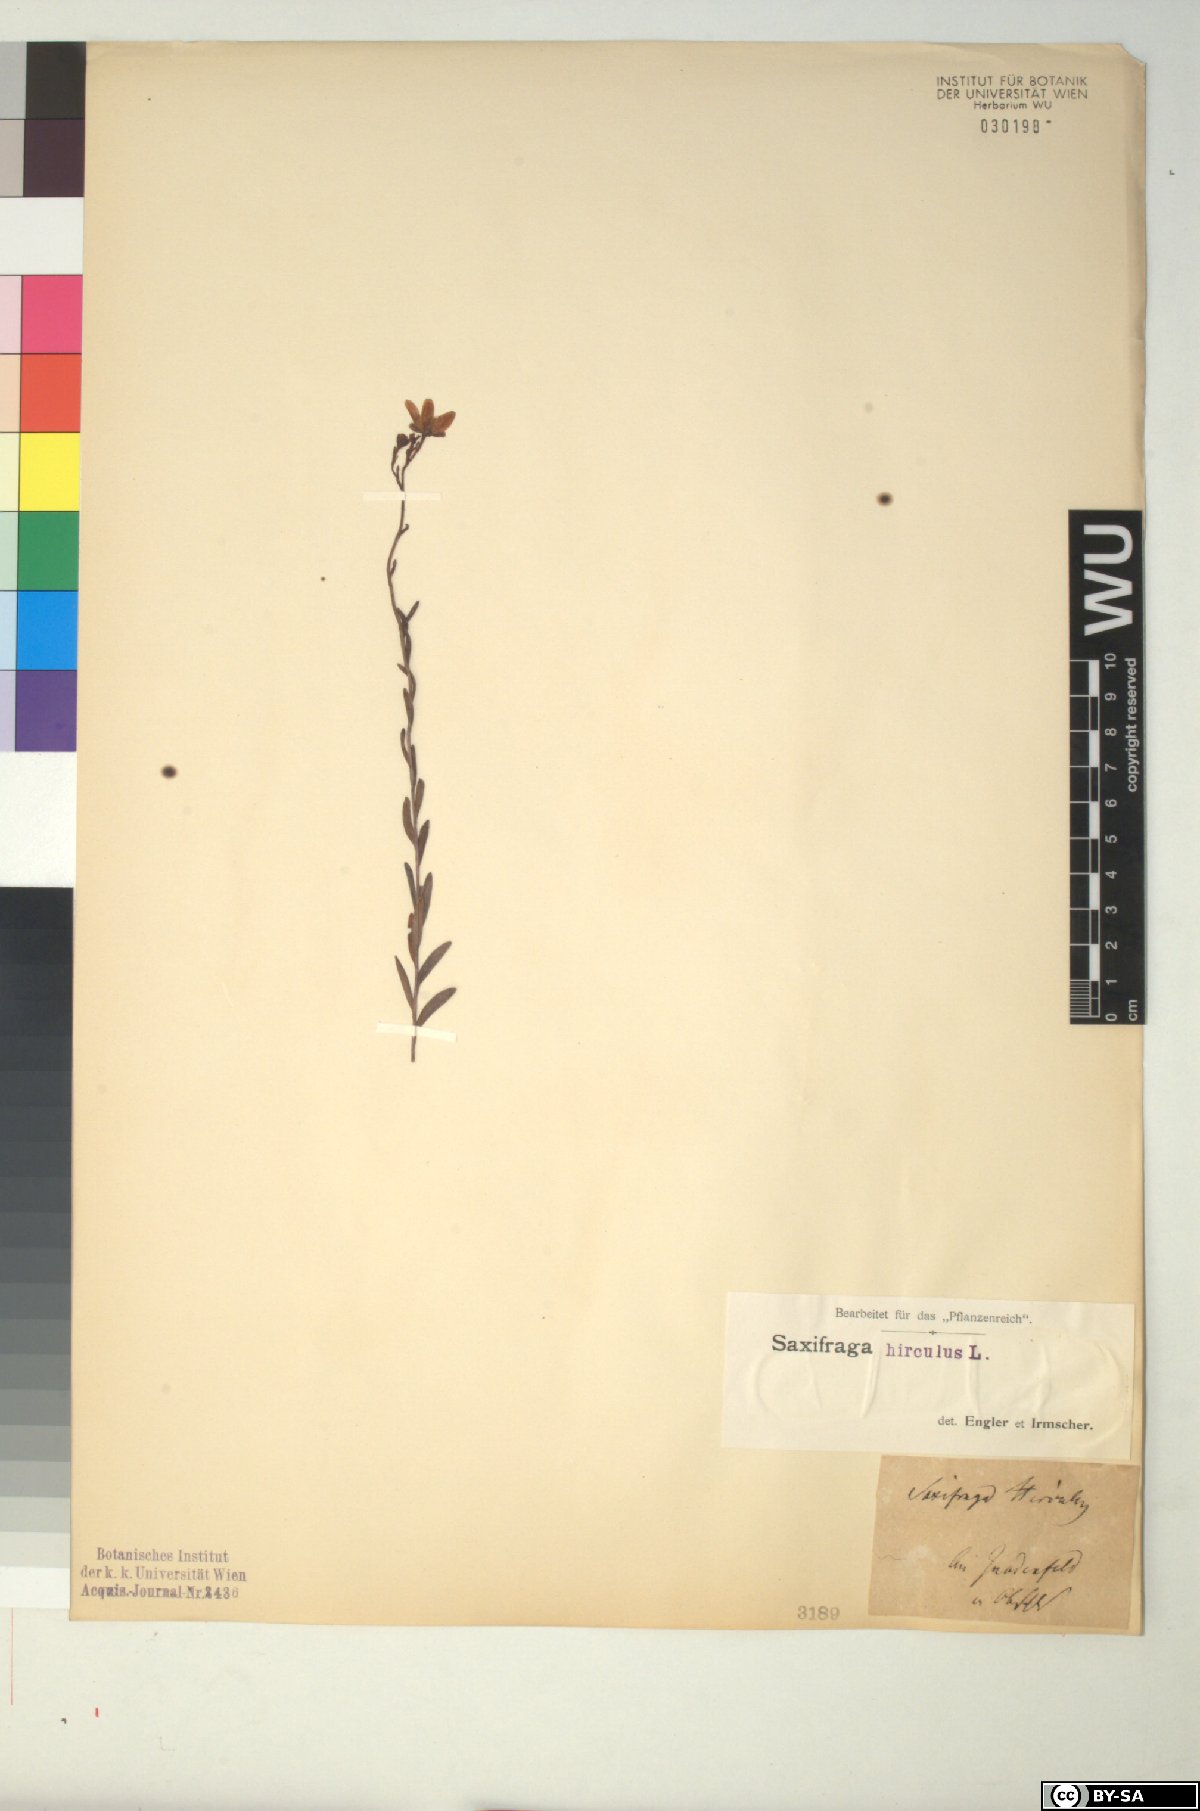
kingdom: Plantae
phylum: Tracheophyta
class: Magnoliopsida
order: Saxifragales
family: Saxifragaceae
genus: Saxifraga
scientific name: Saxifraga hirculus
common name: Yellow marsh saxifrage
